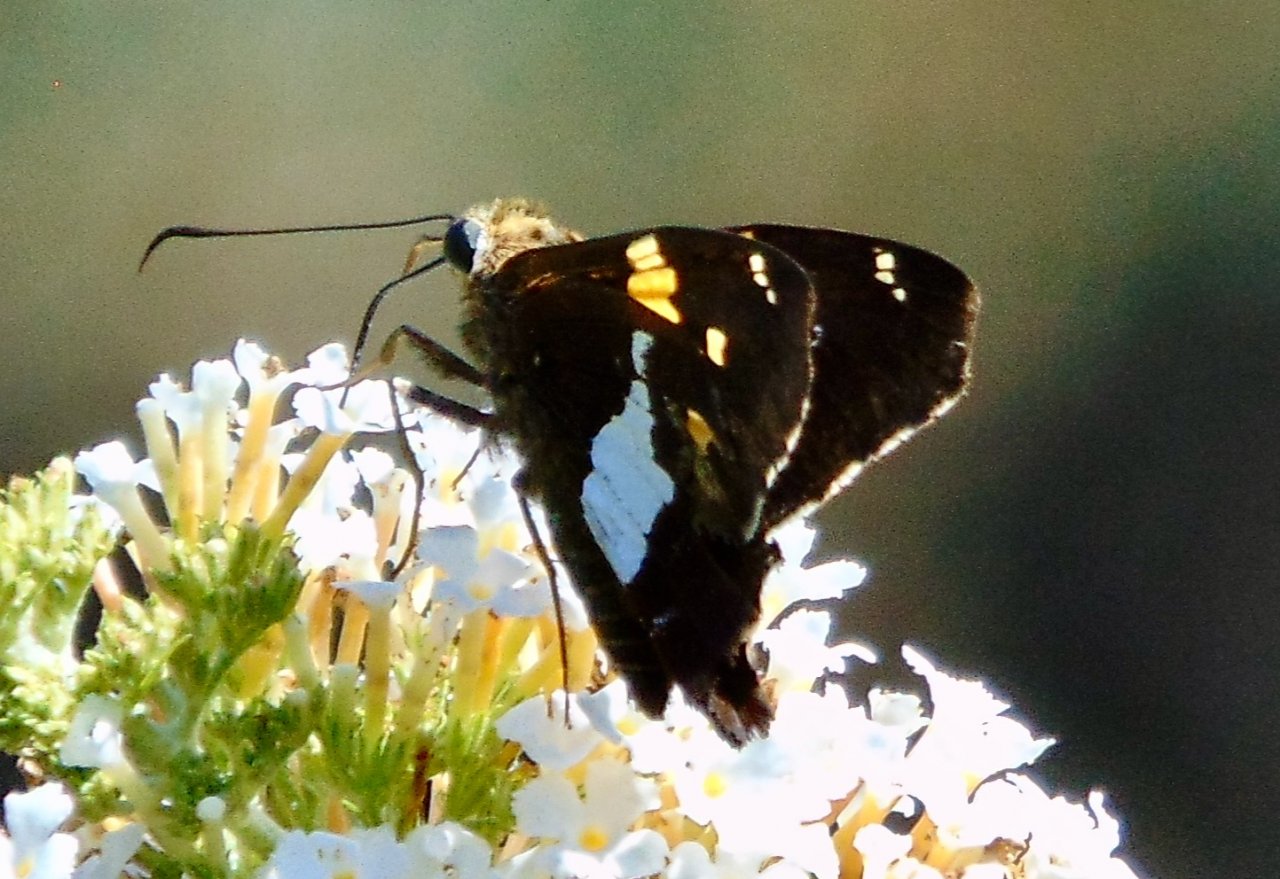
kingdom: Animalia
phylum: Arthropoda
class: Insecta
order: Lepidoptera
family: Hesperiidae
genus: Epargyreus
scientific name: Epargyreus clarus
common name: Silver-spotted Skipper
